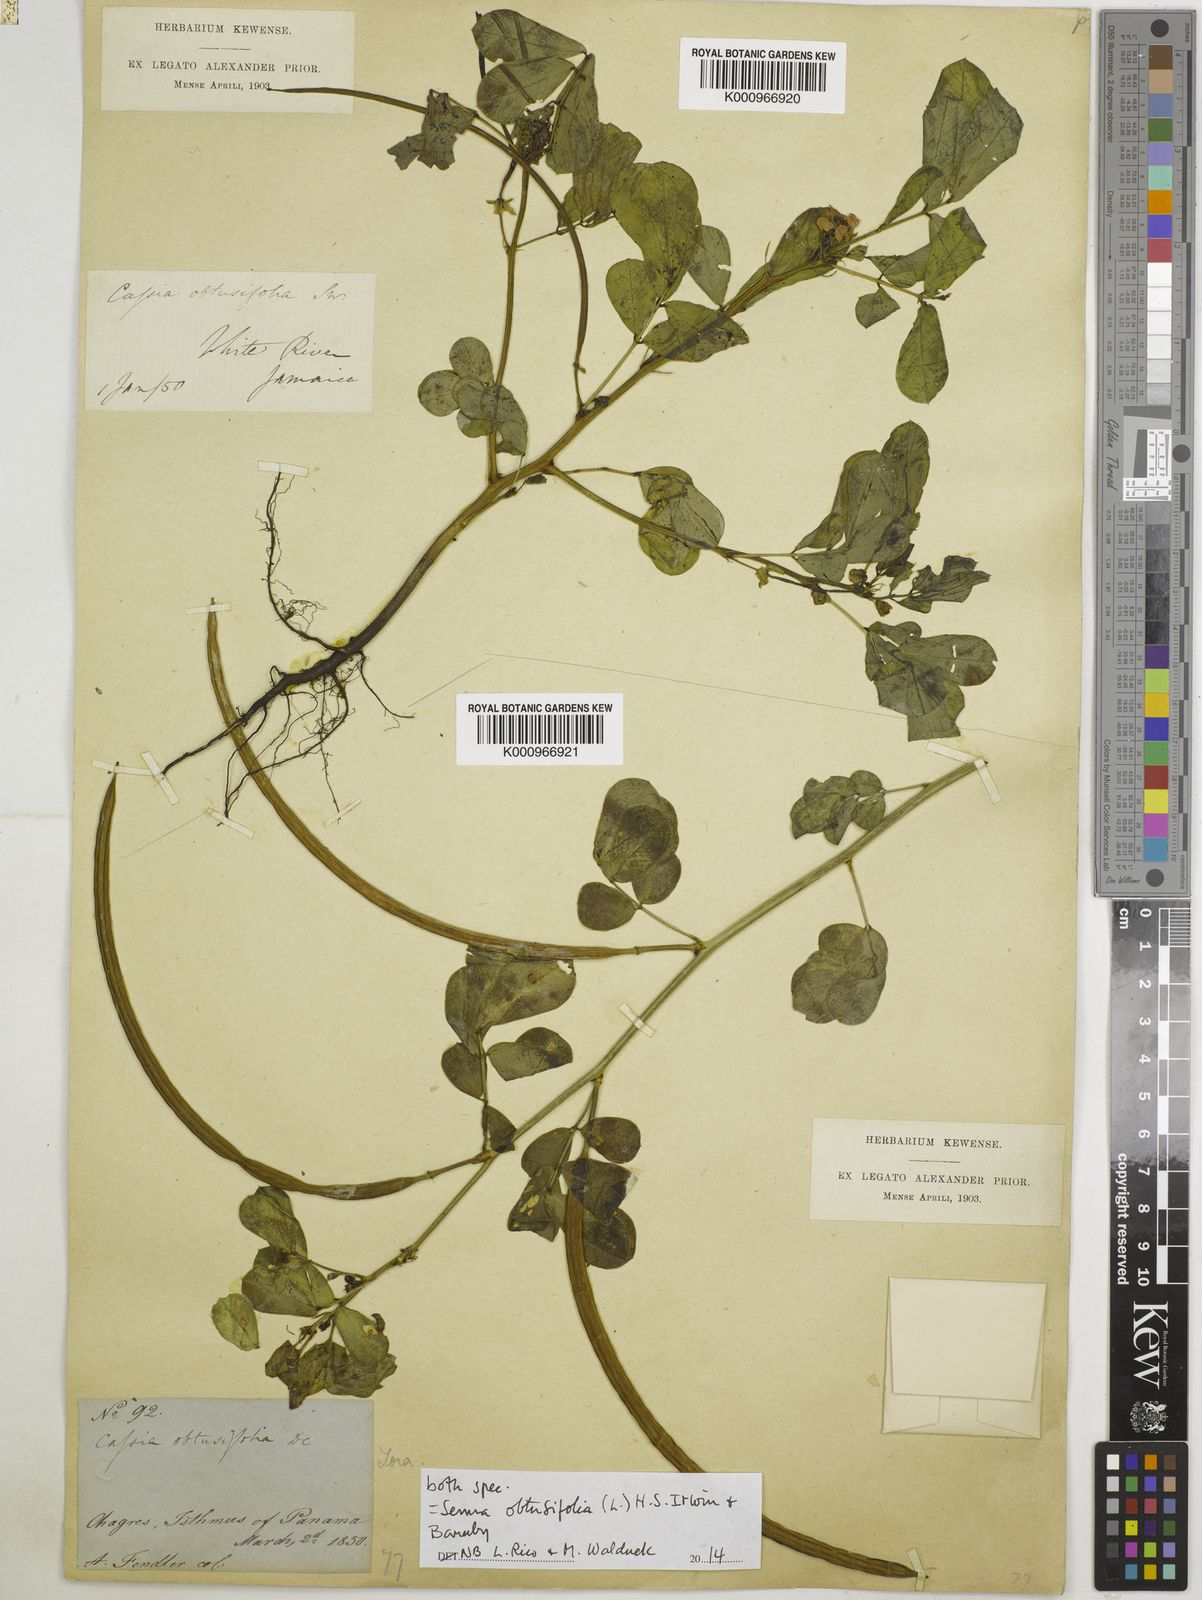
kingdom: Plantae
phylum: Tracheophyta
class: Magnoliopsida
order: Fabales
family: Fabaceae
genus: Senna
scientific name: Senna obtusifolia
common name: Java-bean
